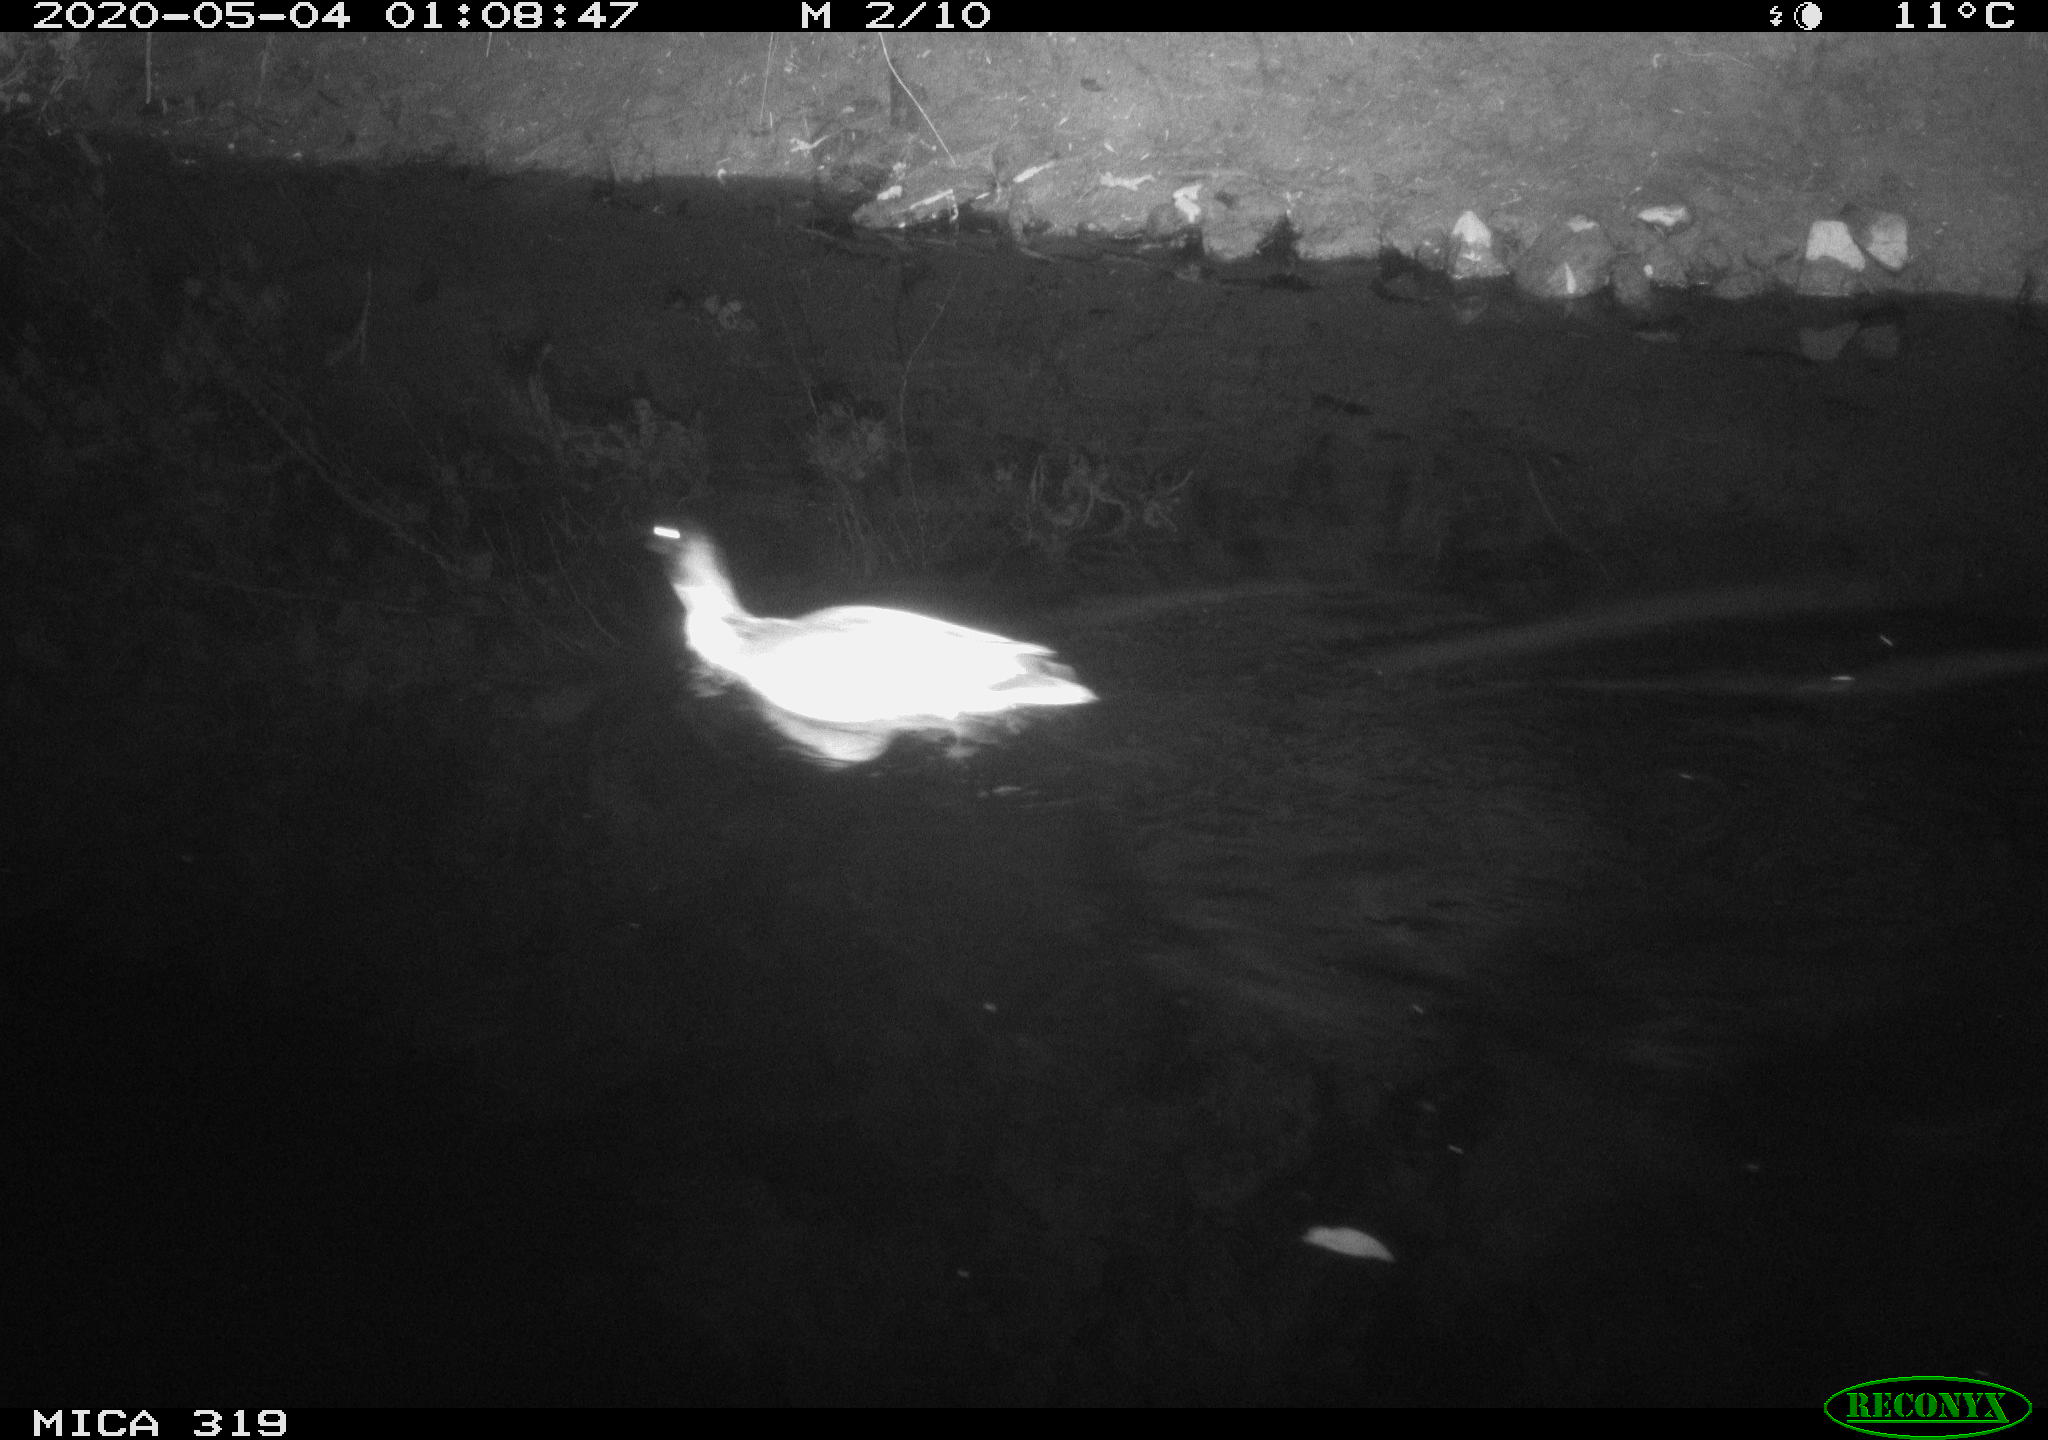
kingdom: Animalia
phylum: Chordata
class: Aves
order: Anseriformes
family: Anatidae
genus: Anas
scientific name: Anas platyrhynchos
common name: Mallard
